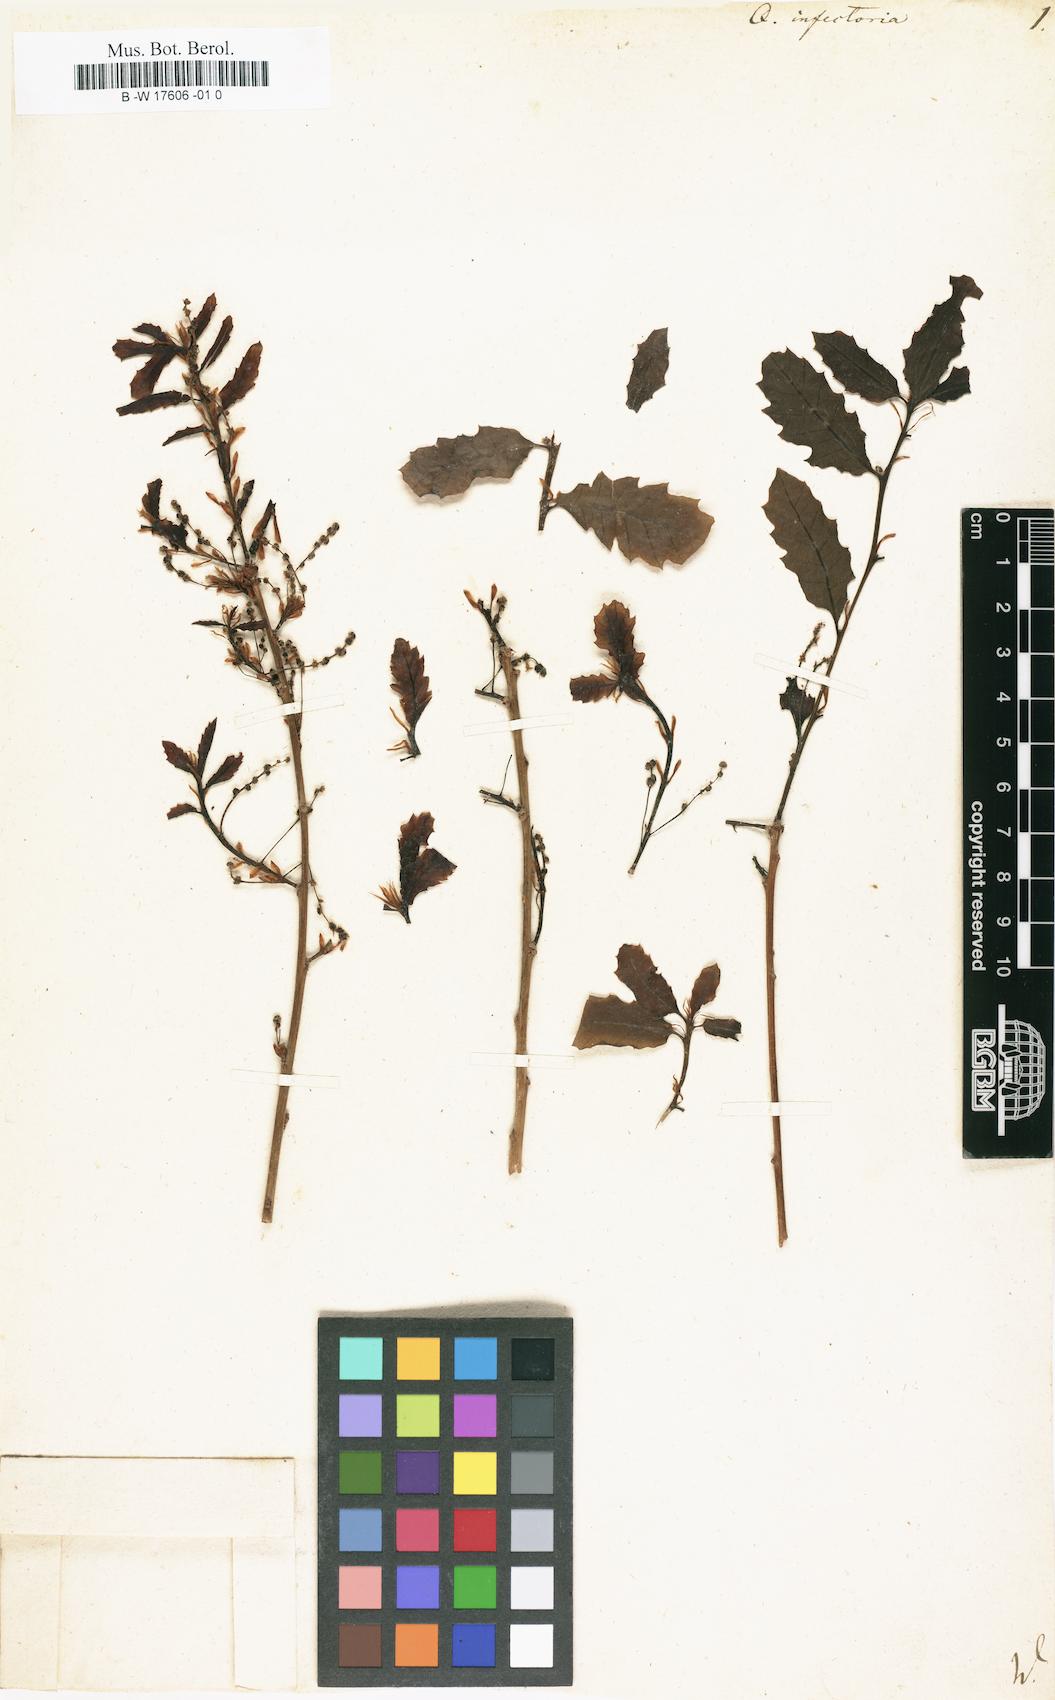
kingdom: Plantae
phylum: Tracheophyta
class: Magnoliopsida
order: Fagales
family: Fagaceae
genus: Quercus
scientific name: Quercus infectoria
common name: Aleppo oak
